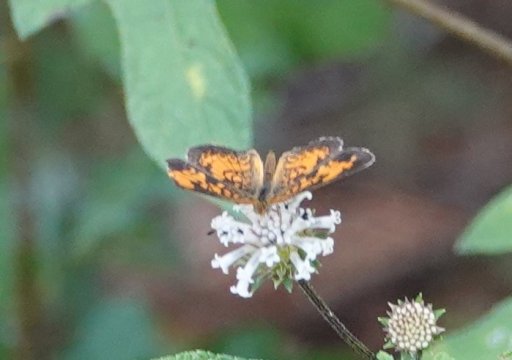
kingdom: Animalia
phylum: Arthropoda
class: Insecta
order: Lepidoptera
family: Nymphalidae
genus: Phyciodes
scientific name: Phyciodes tharos
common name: Pearl Crescent
